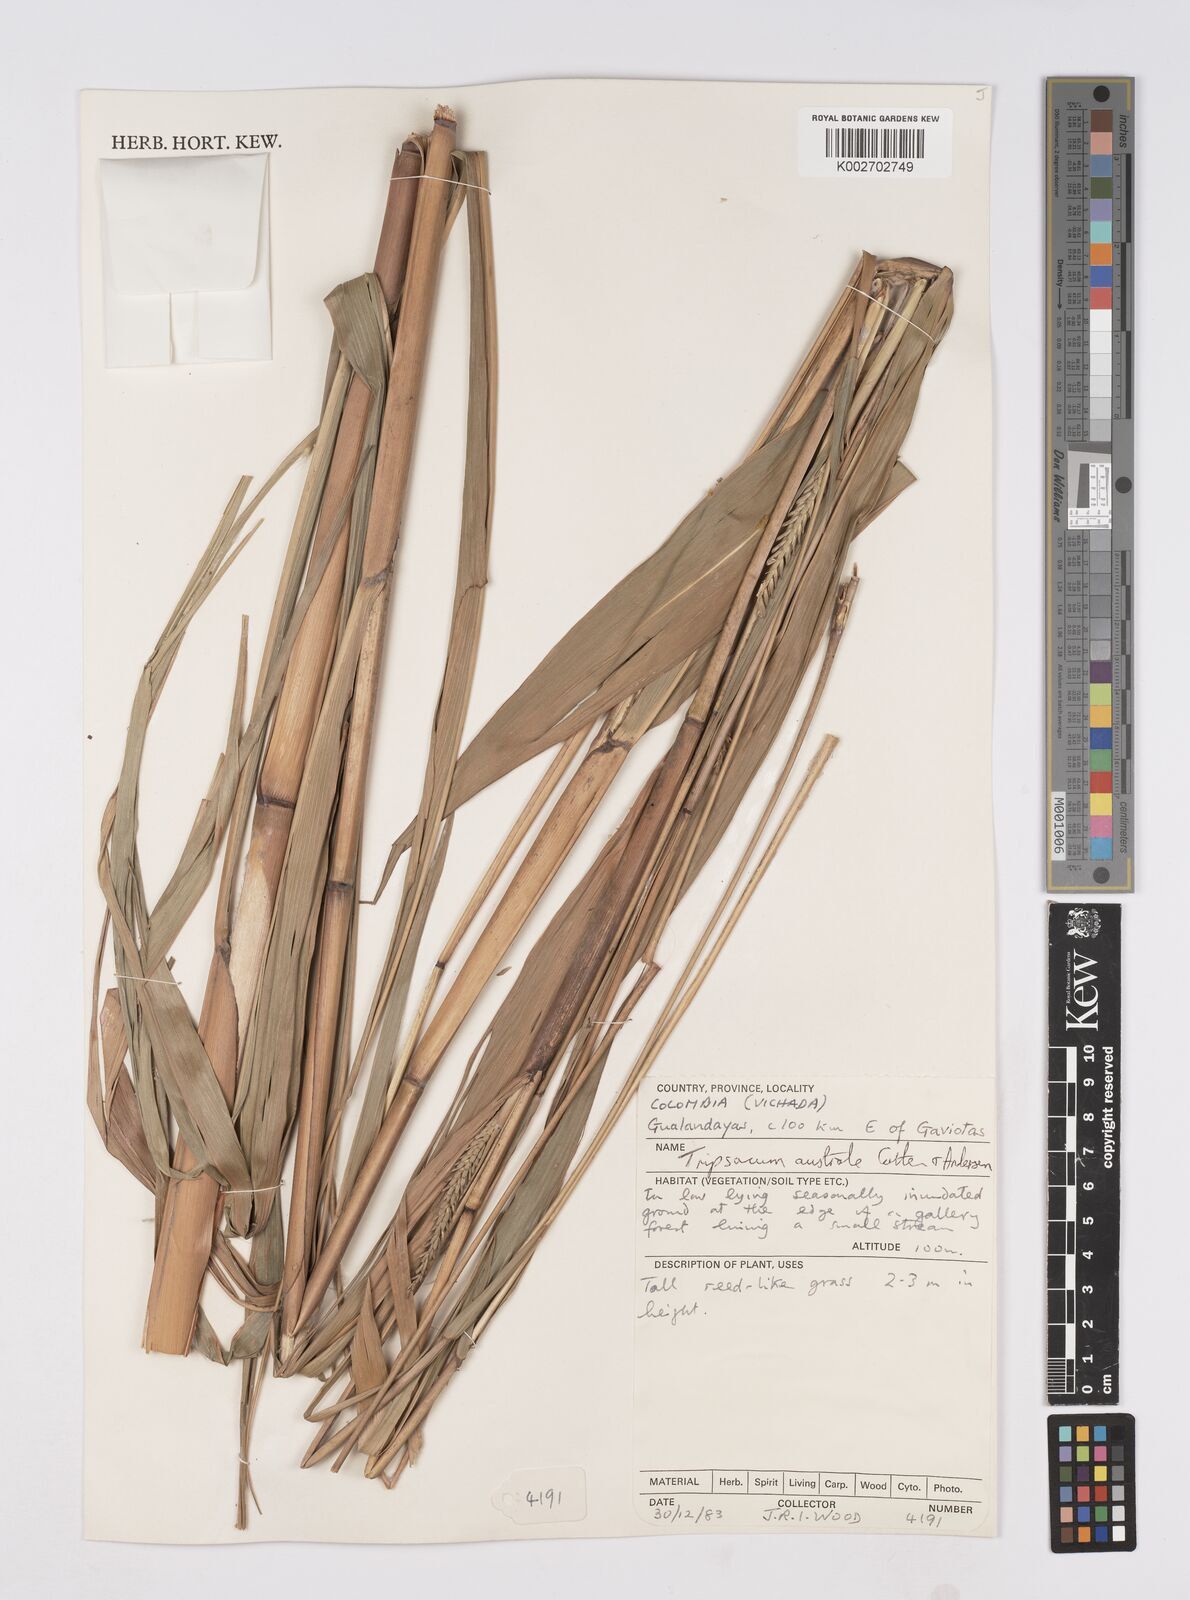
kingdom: Plantae
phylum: Tracheophyta
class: Liliopsida
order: Poales
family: Poaceae
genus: Tripsacum
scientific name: Tripsacum australe
